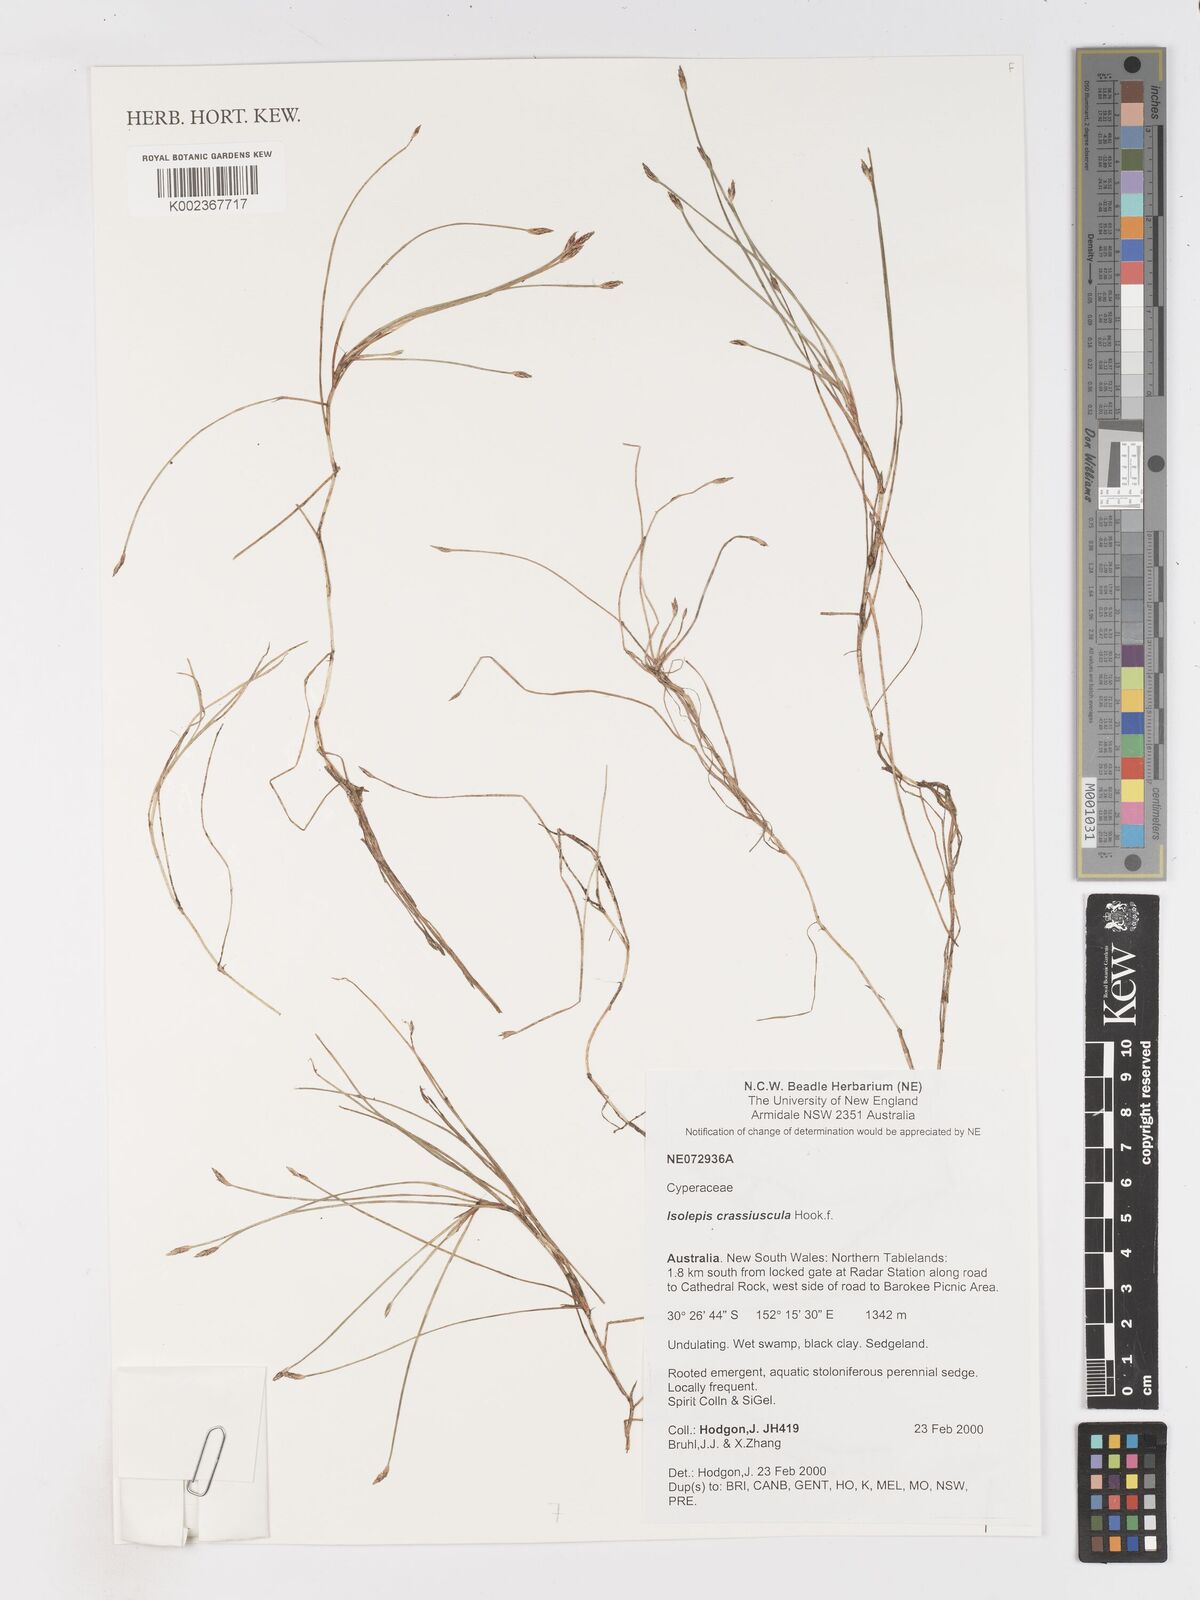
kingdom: Plantae
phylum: Tracheophyta
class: Liliopsida
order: Poales
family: Cyperaceae
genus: Isolepis
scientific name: Isolepis crassiuscula
